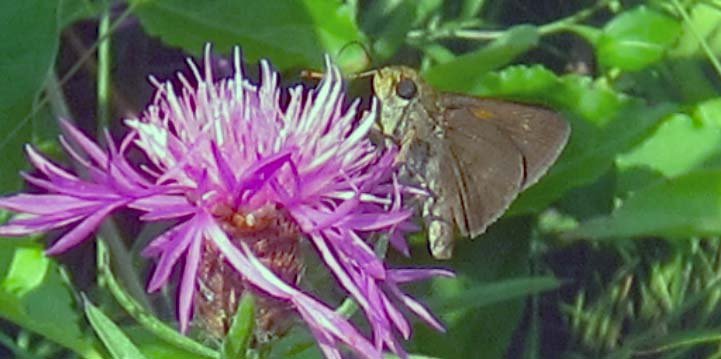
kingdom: Animalia
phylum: Arthropoda
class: Insecta
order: Lepidoptera
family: Hesperiidae
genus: Euphyes
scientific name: Euphyes vestris
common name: Dun Skipper
